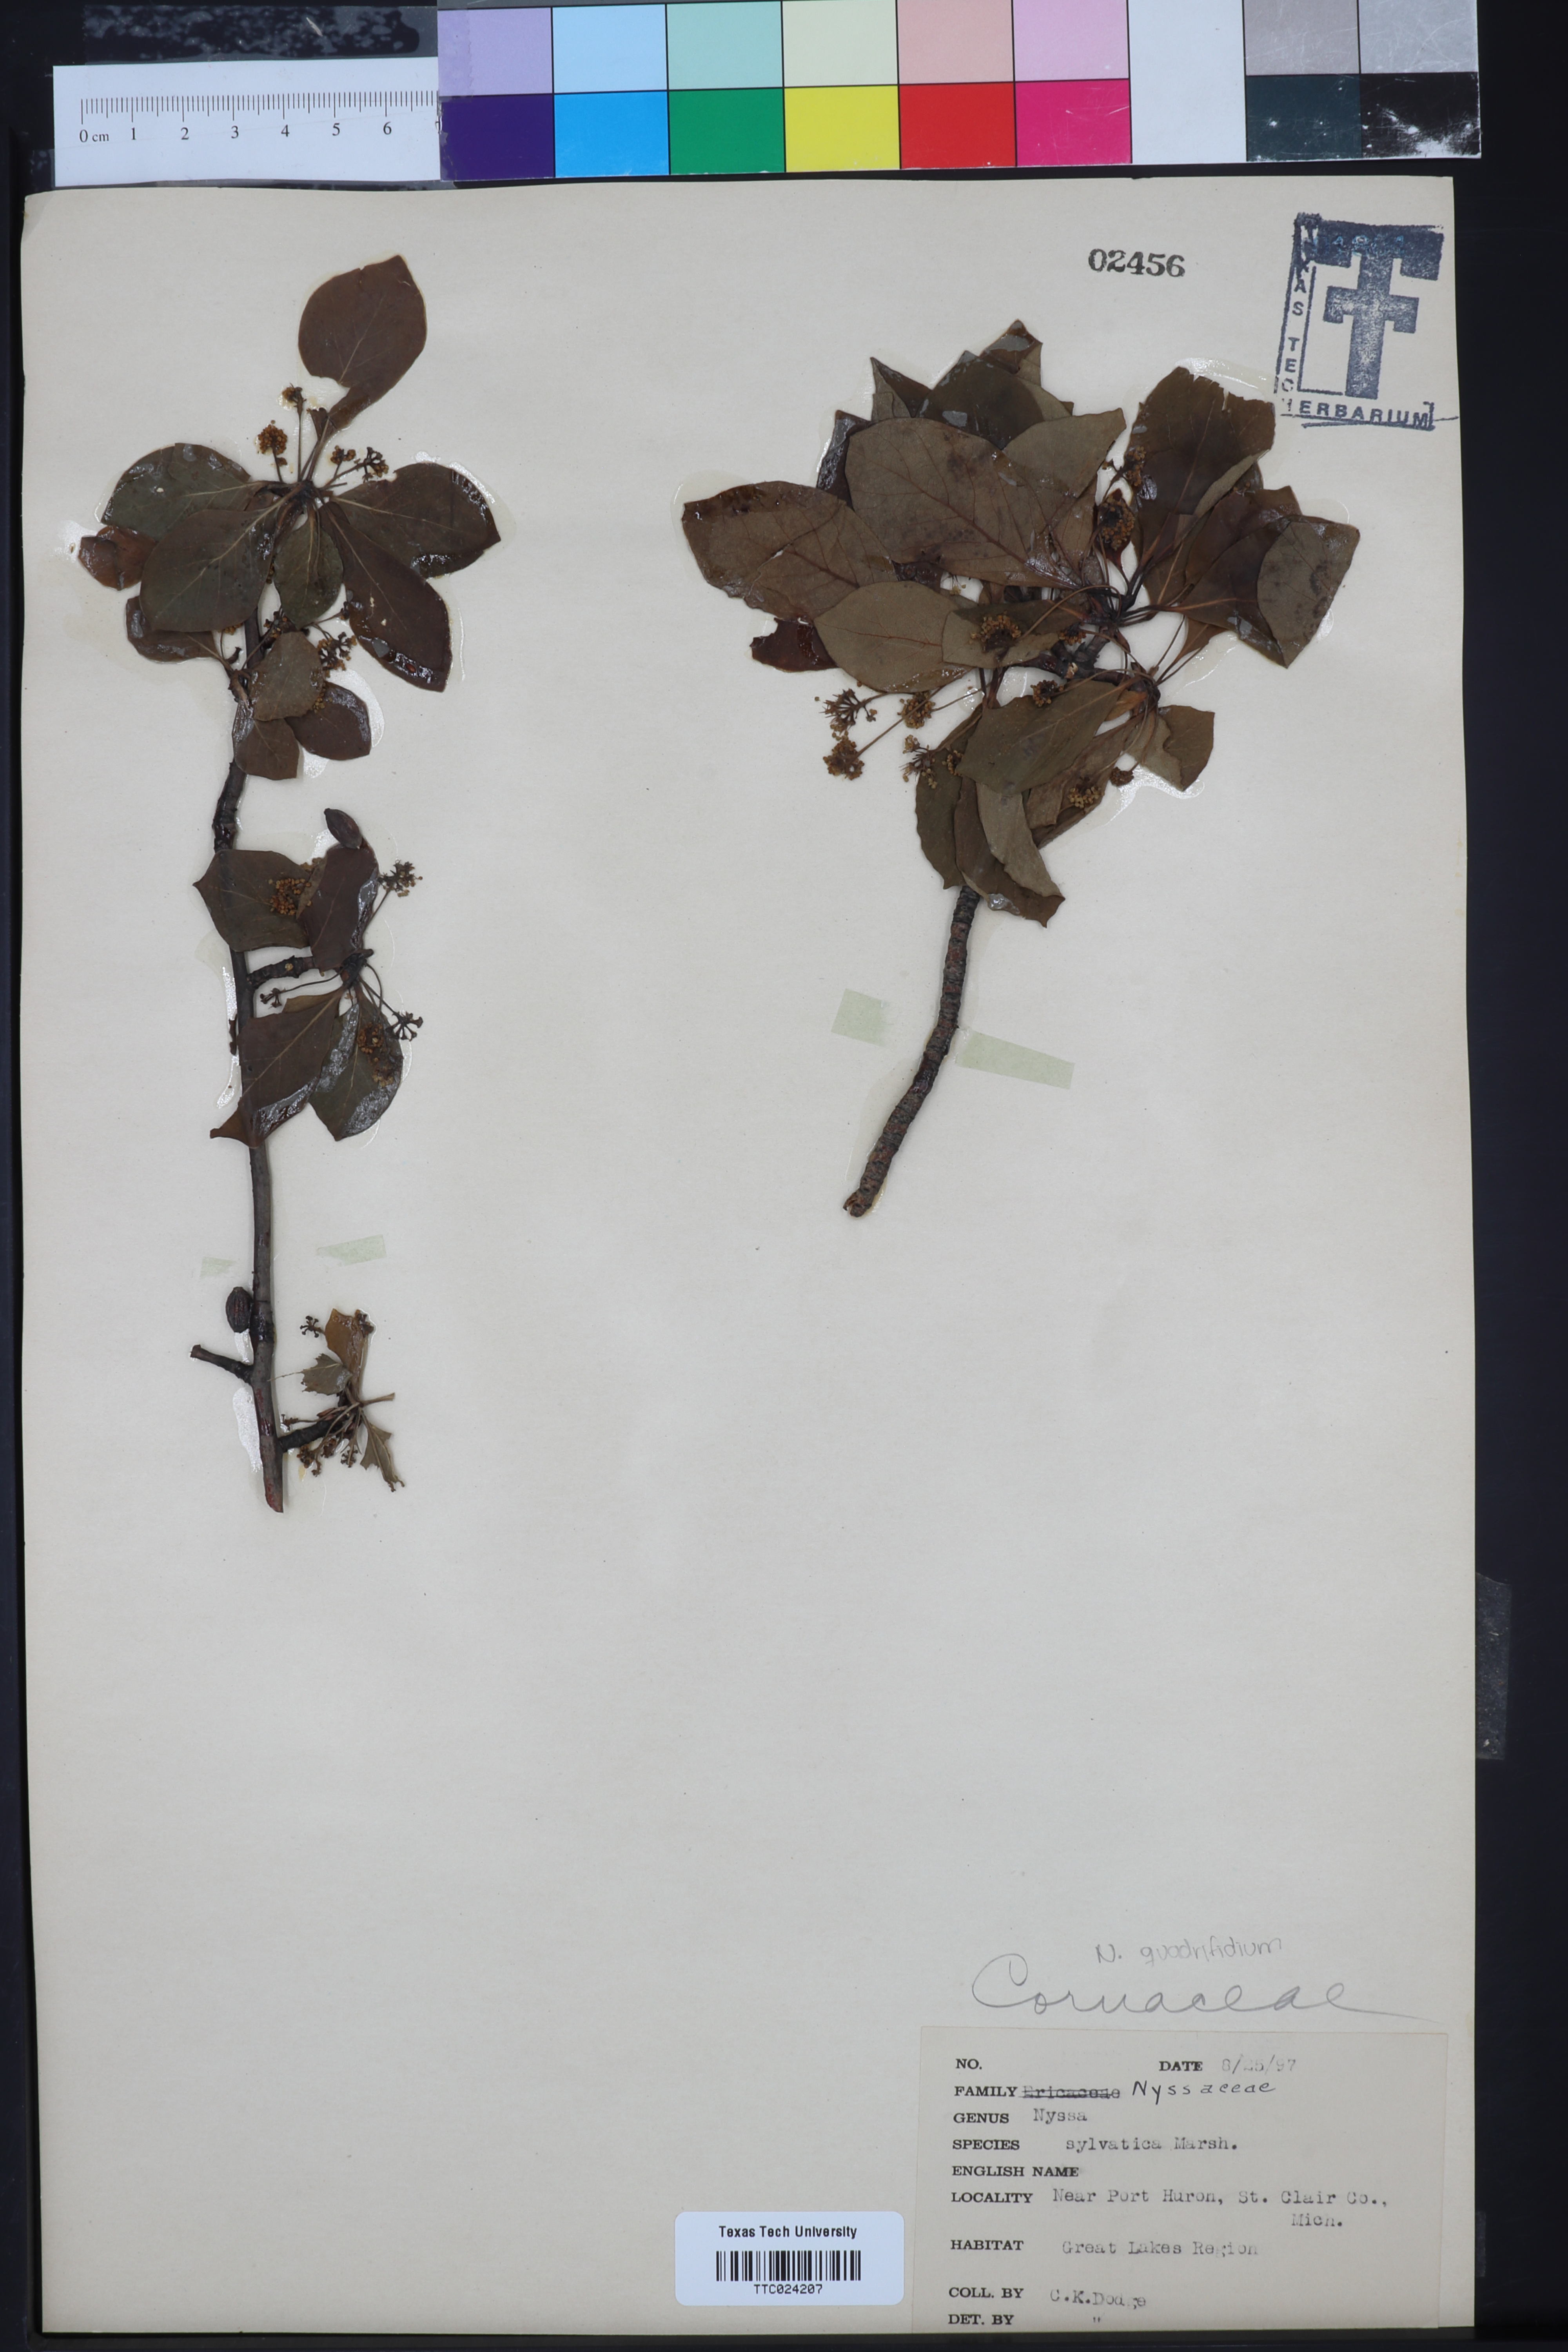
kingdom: Plantae
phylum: Tracheophyta
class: Magnoliopsida
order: Cornales
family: Nyssaceae
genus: Nyssa
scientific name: Nyssa sylvatica
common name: Black tupelo
